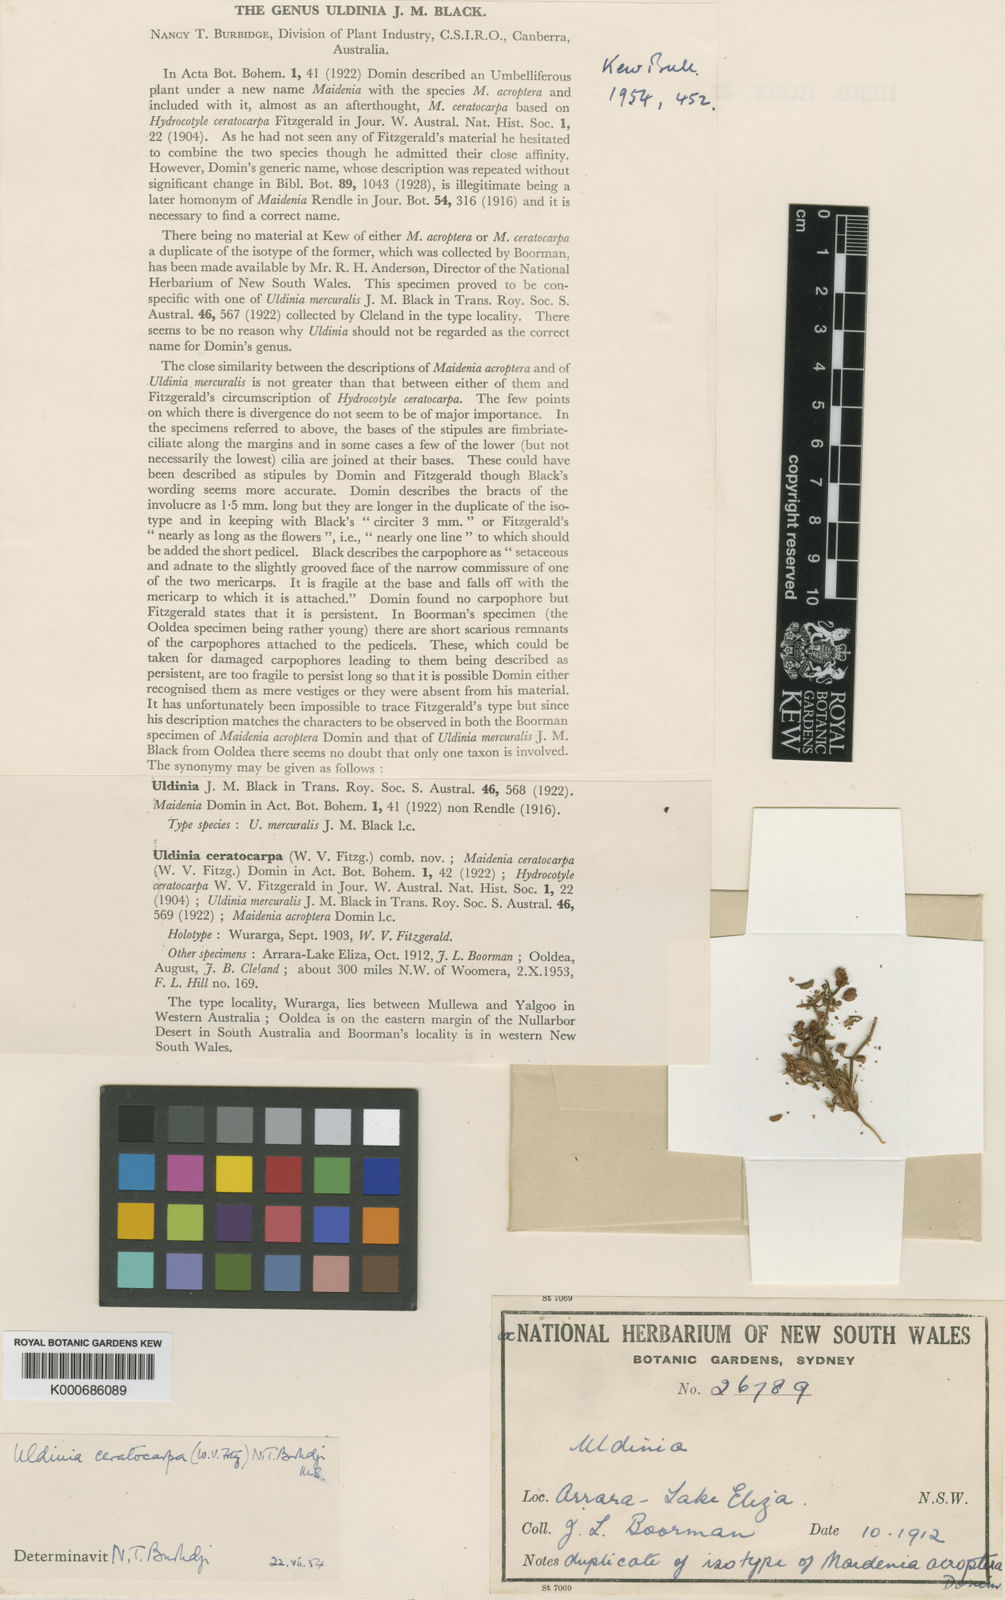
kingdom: Plantae
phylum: Tracheophyta
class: Magnoliopsida
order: Apiales
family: Araliaceae
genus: Trachymene
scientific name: Trachymene ceratocarpa
